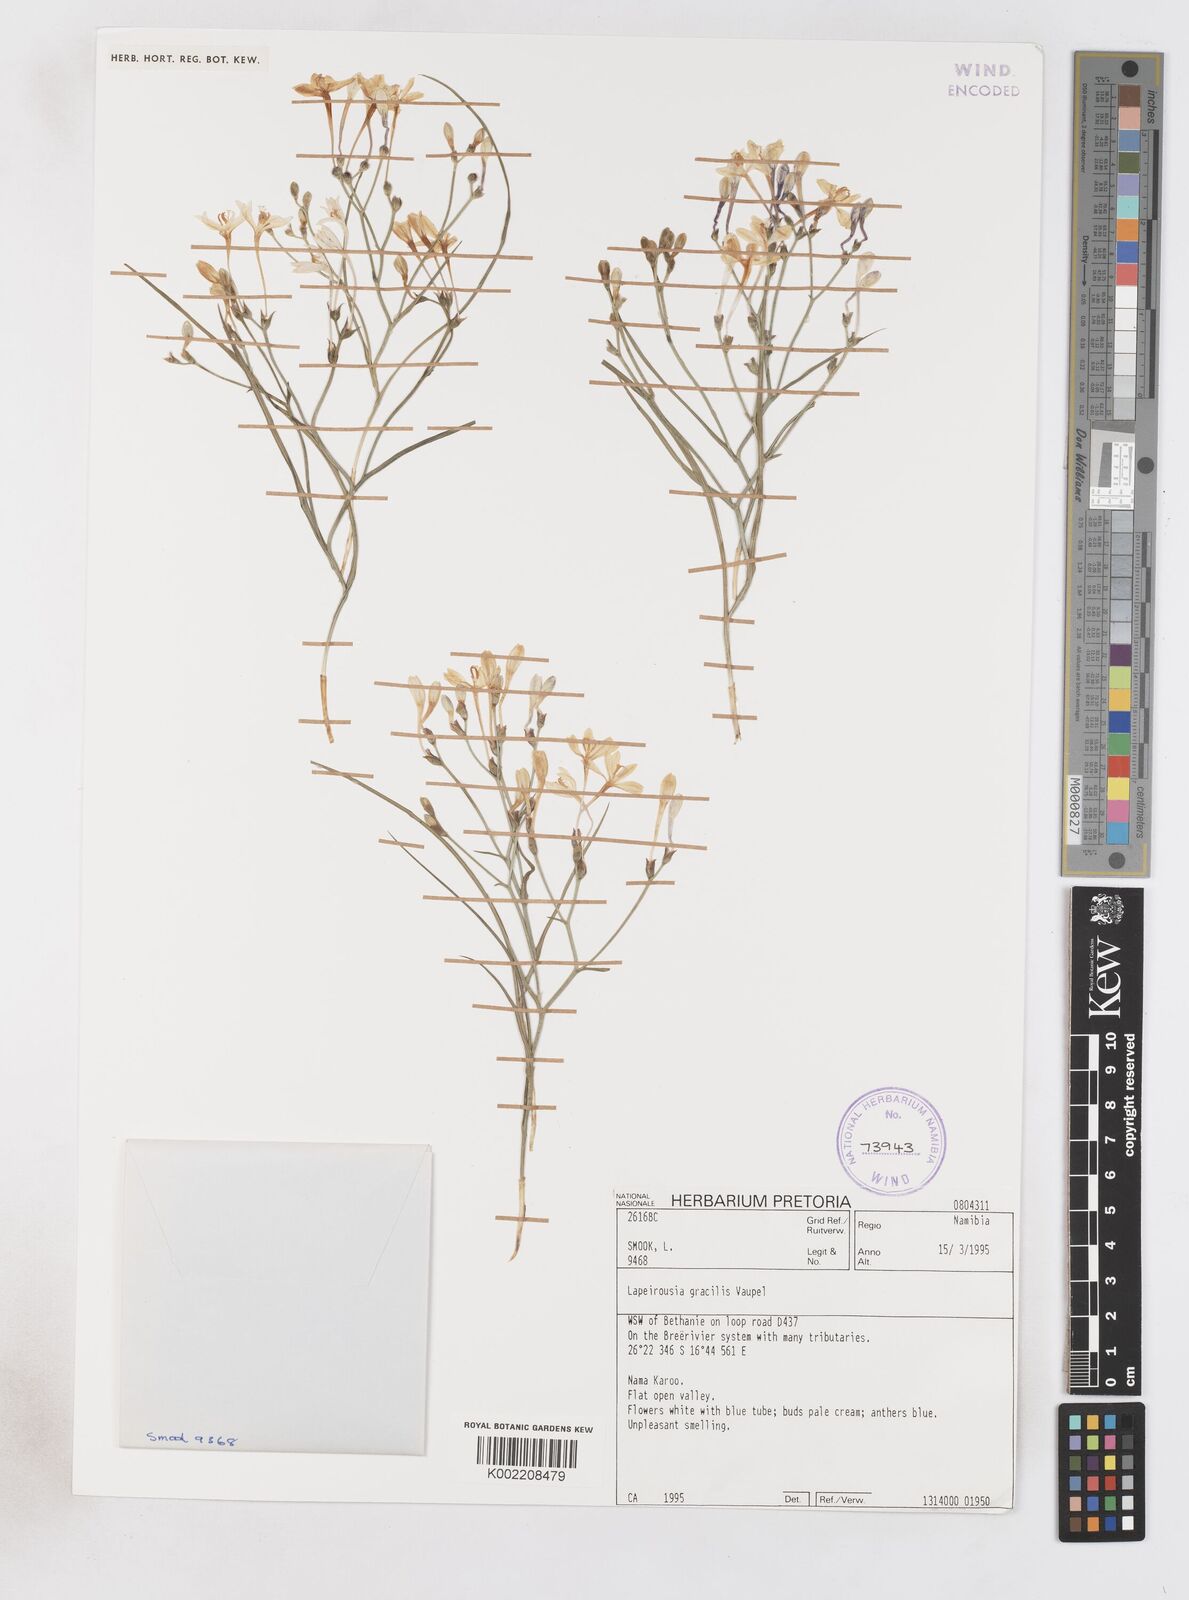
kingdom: Plantae
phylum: Tracheophyta
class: Liliopsida
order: Asparagales
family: Iridaceae
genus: Afrosolen
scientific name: Afrosolen gracilis
